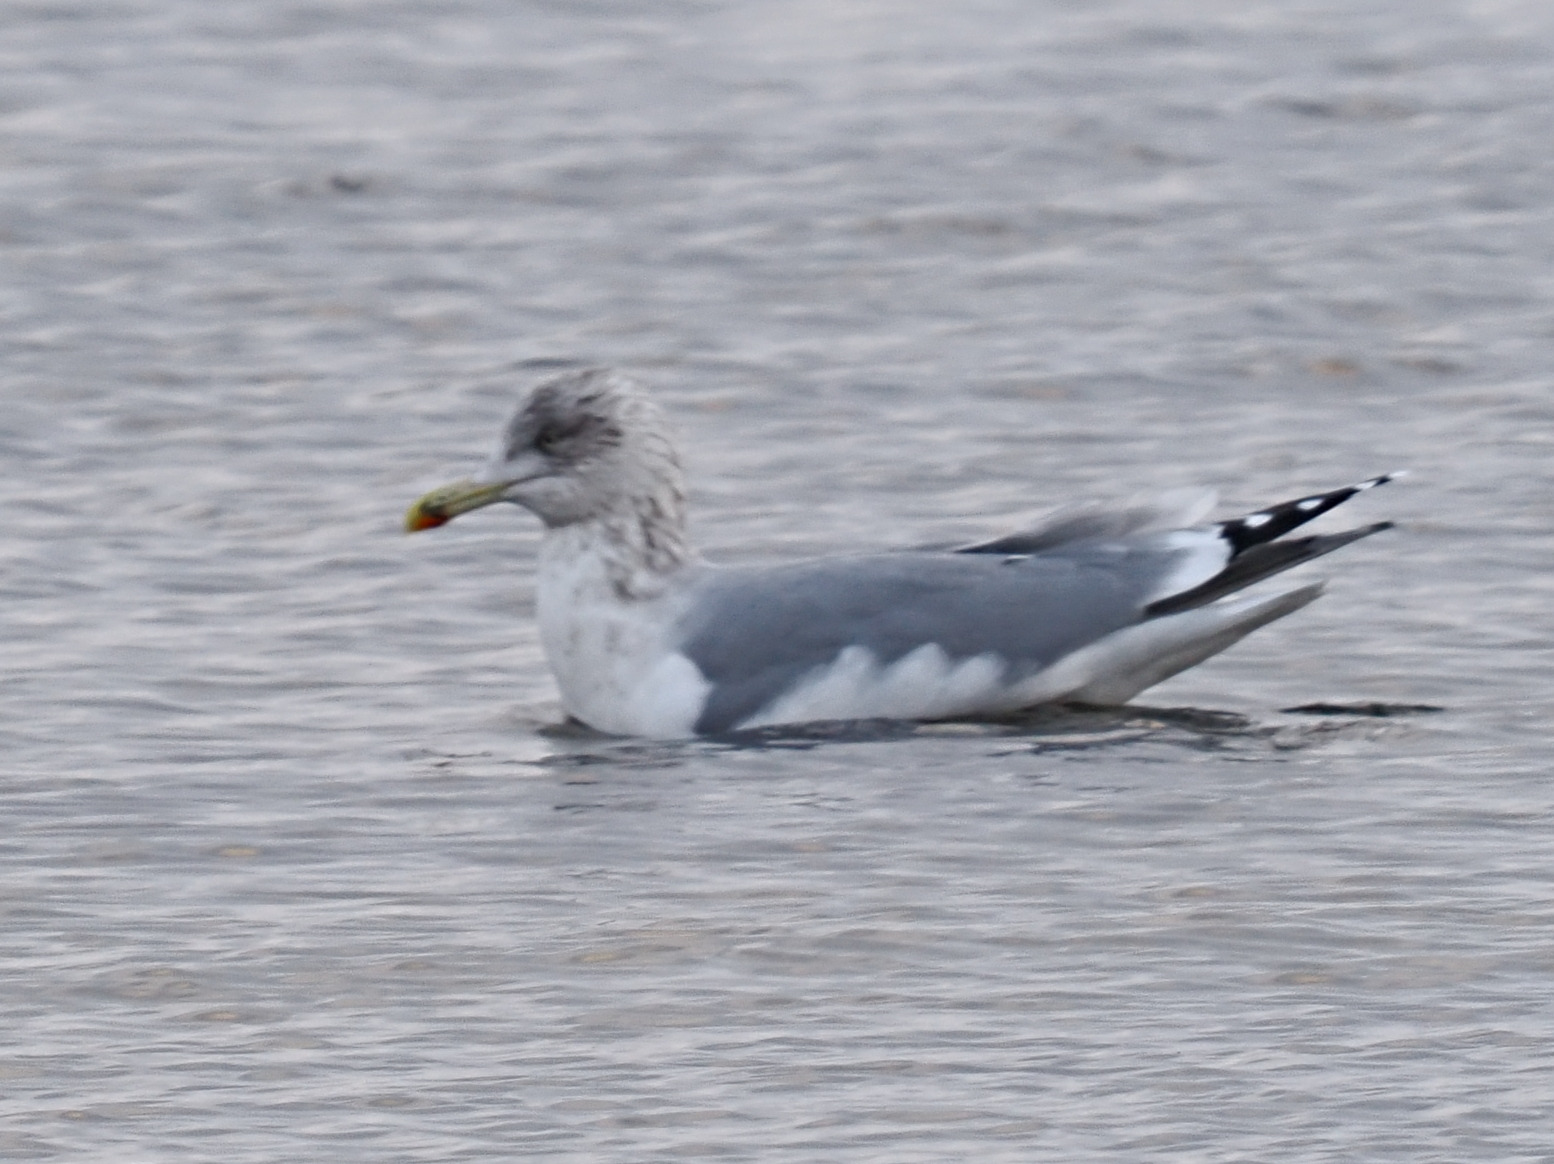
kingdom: Animalia
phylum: Chordata
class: Aves
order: Charadriiformes
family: Laridae
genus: Larus
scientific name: Larus argentatus
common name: Sølvmåge
